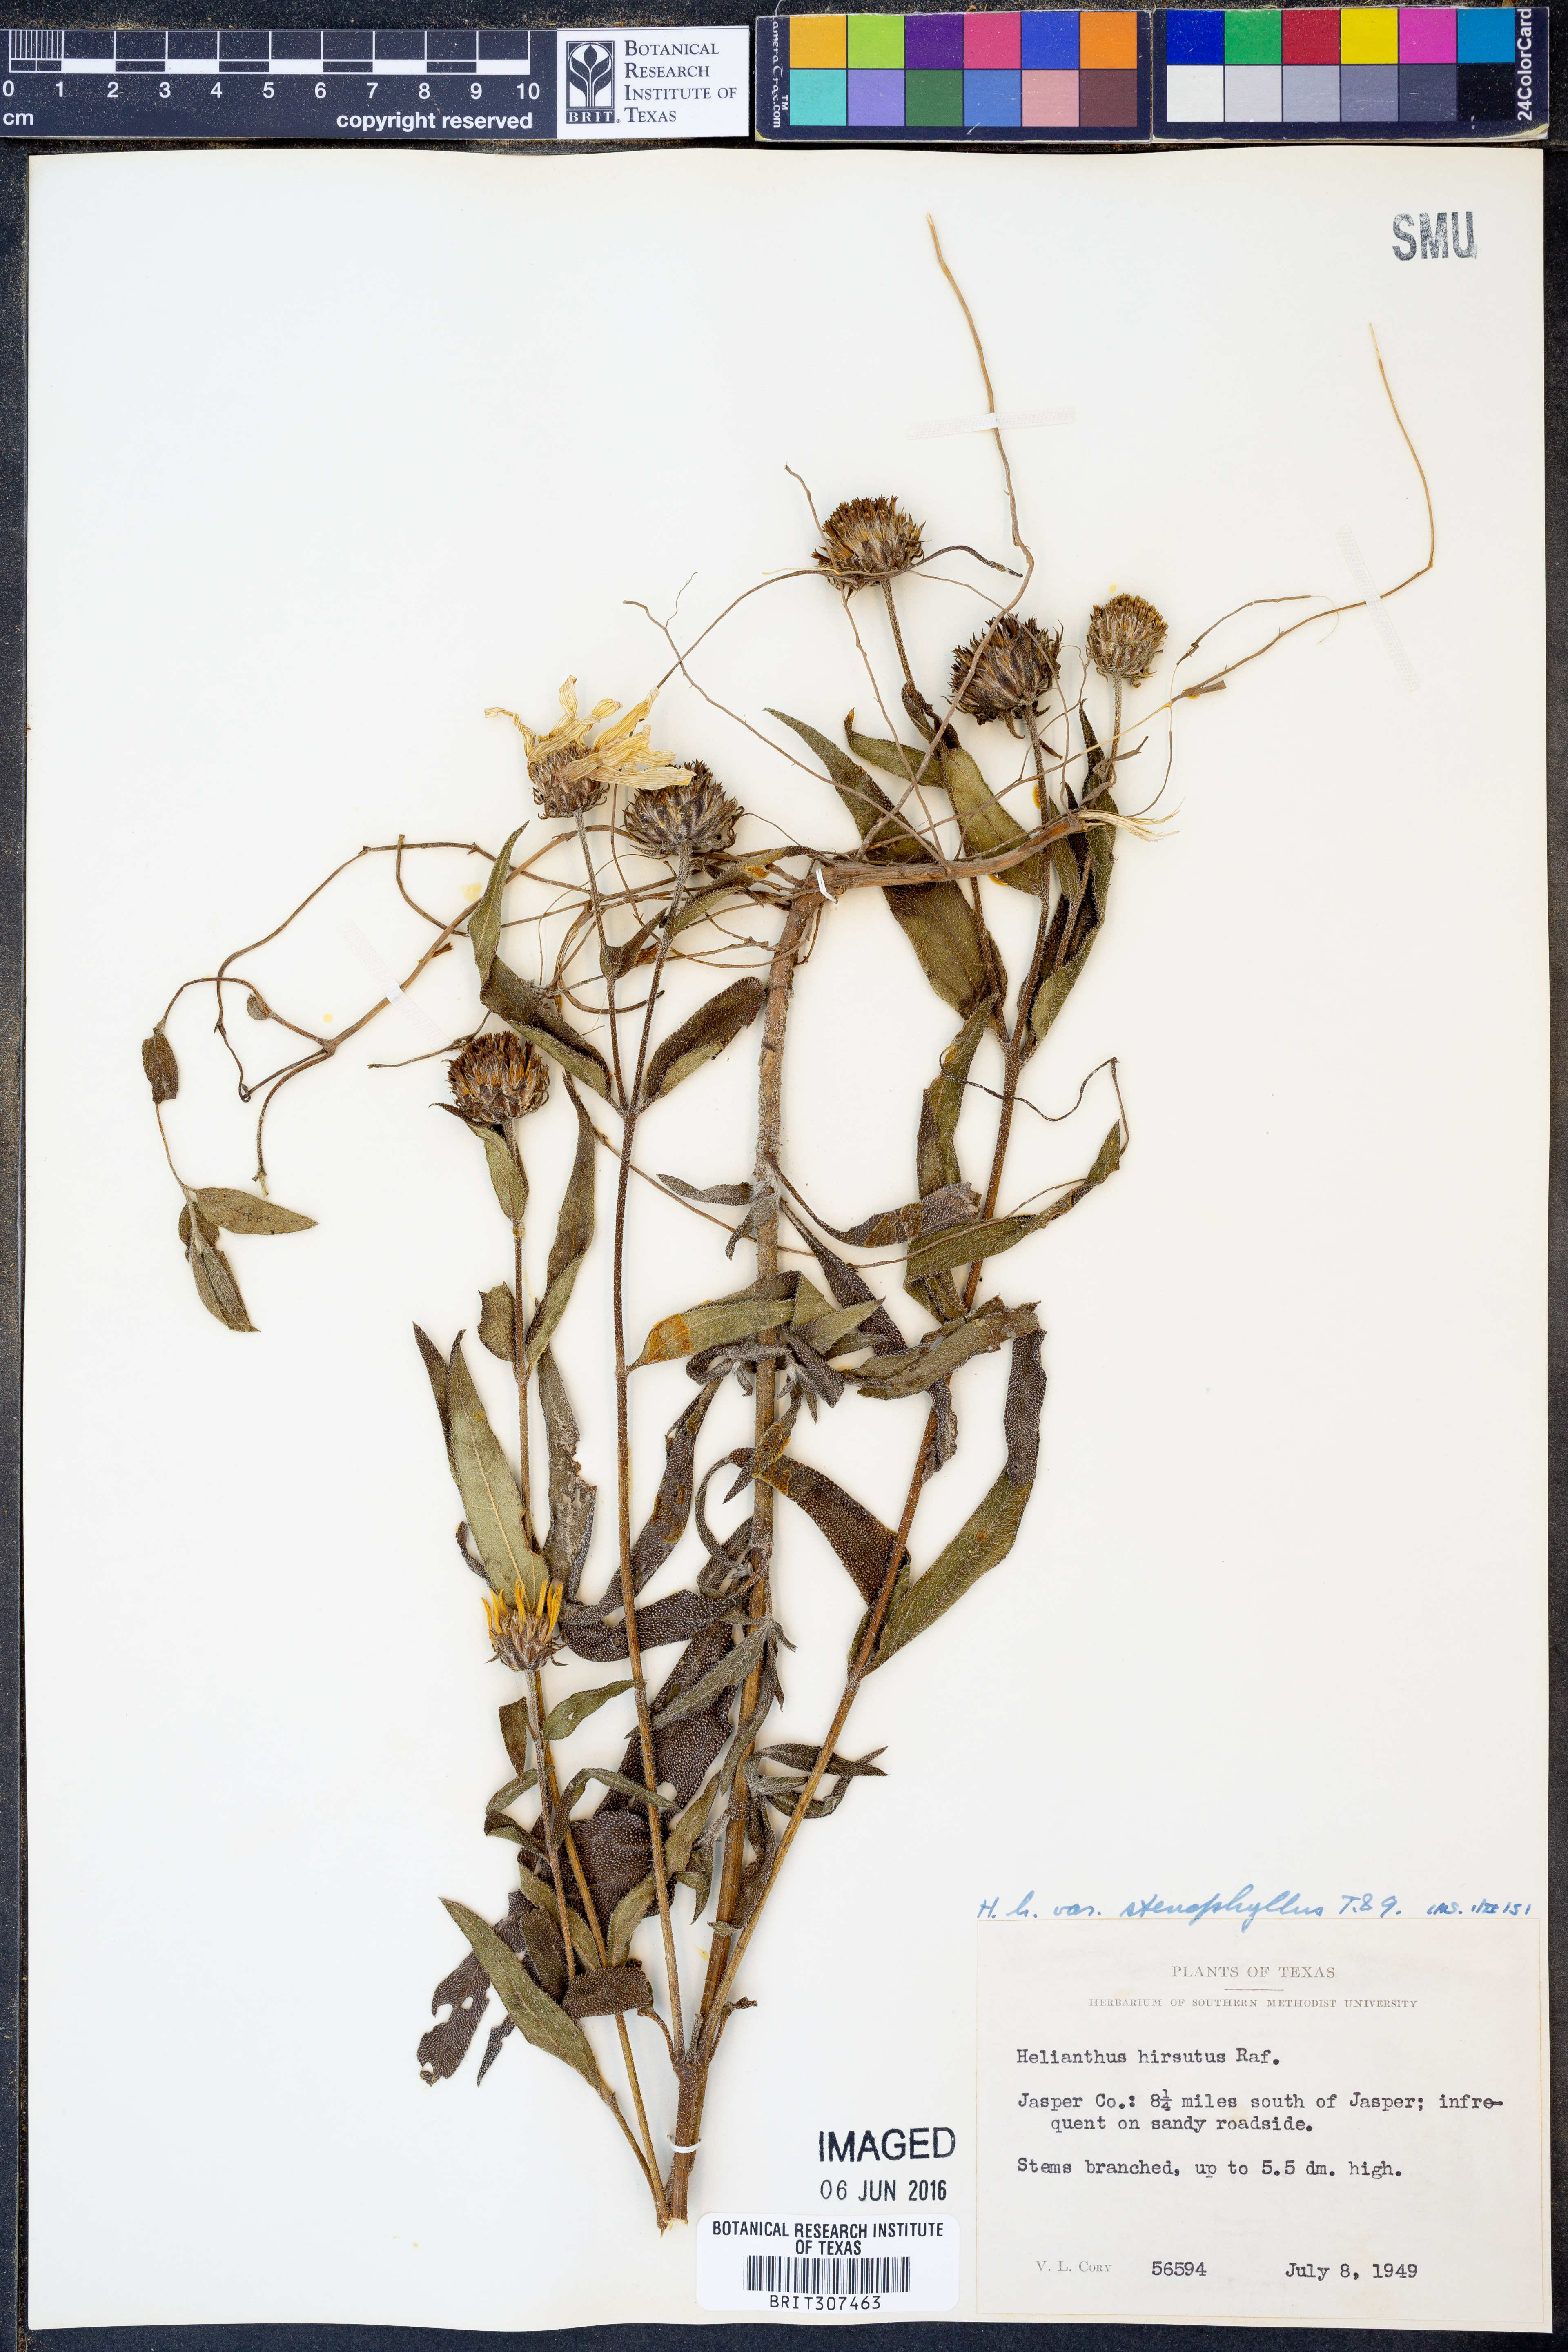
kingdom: Plantae
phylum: Tracheophyta
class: Magnoliopsida
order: Asterales
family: Asteraceae
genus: Helianthus
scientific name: Helianthus hirsutus
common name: Hairy sunflower
